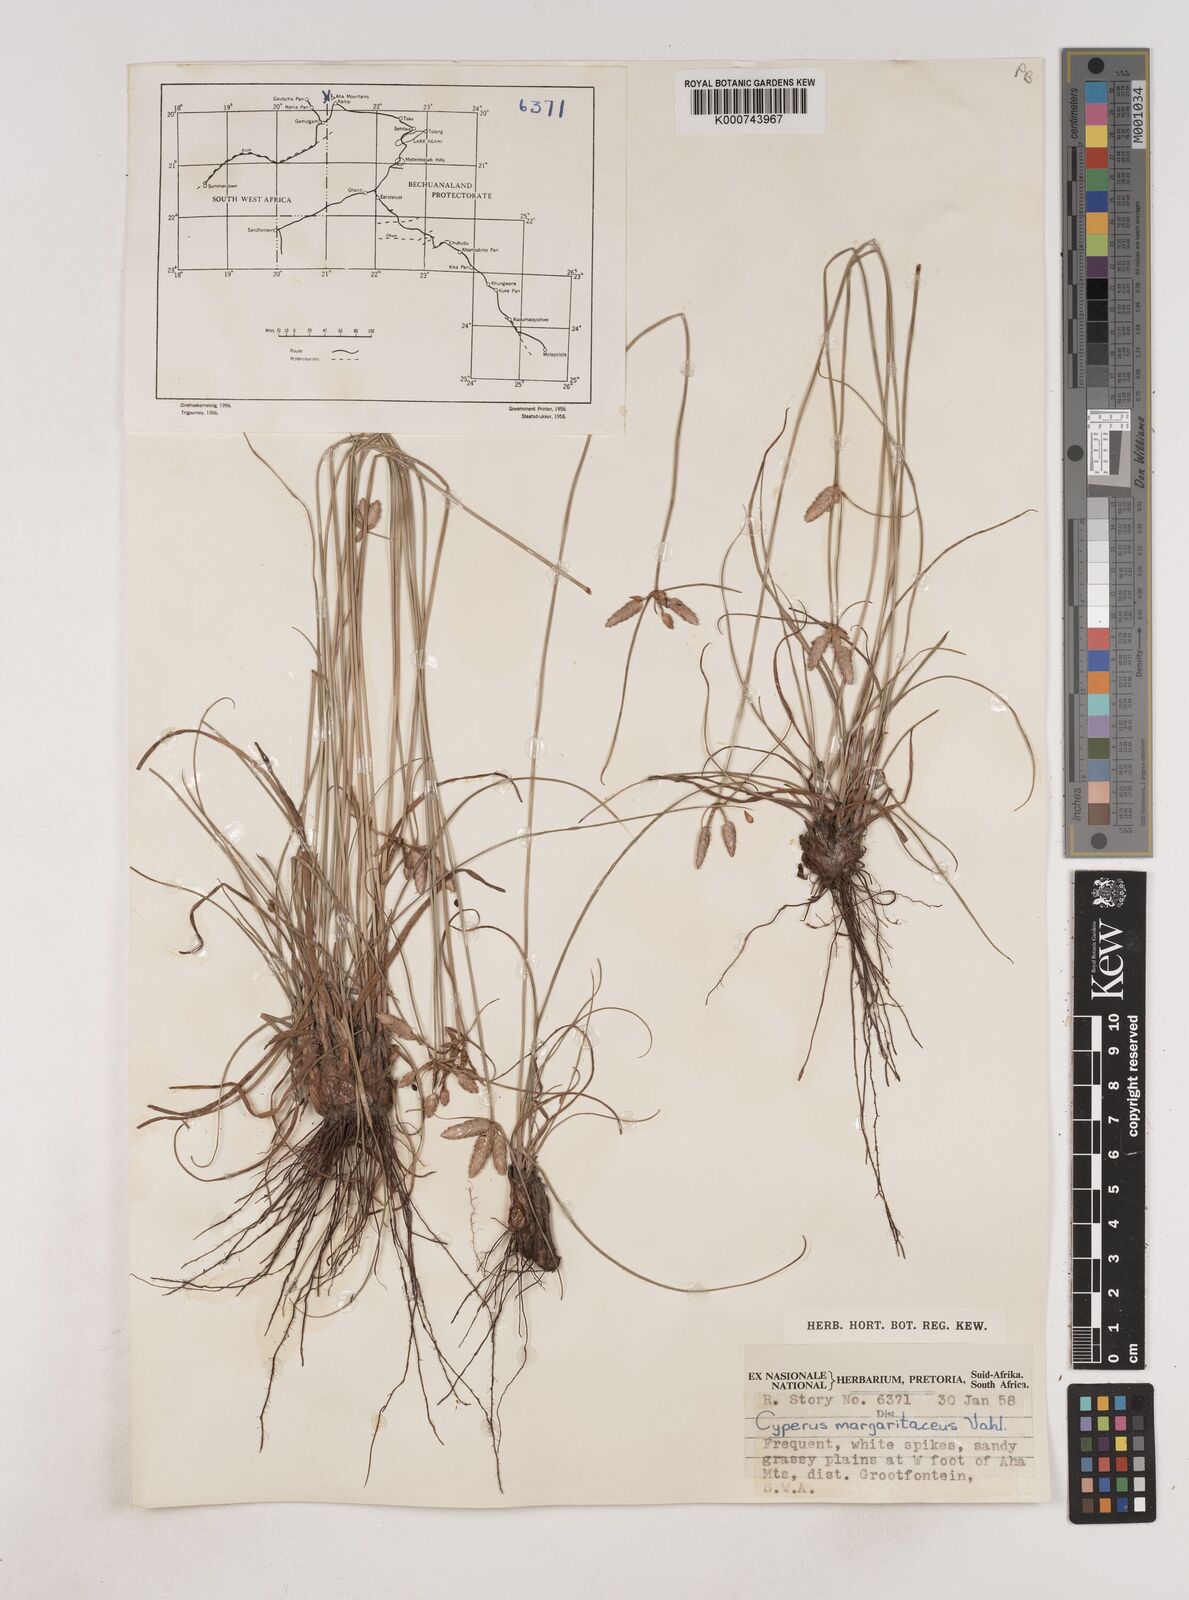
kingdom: Plantae
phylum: Tracheophyta
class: Liliopsida
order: Poales
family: Cyperaceae
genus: Cyperus
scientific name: Cyperus margaritaceus
